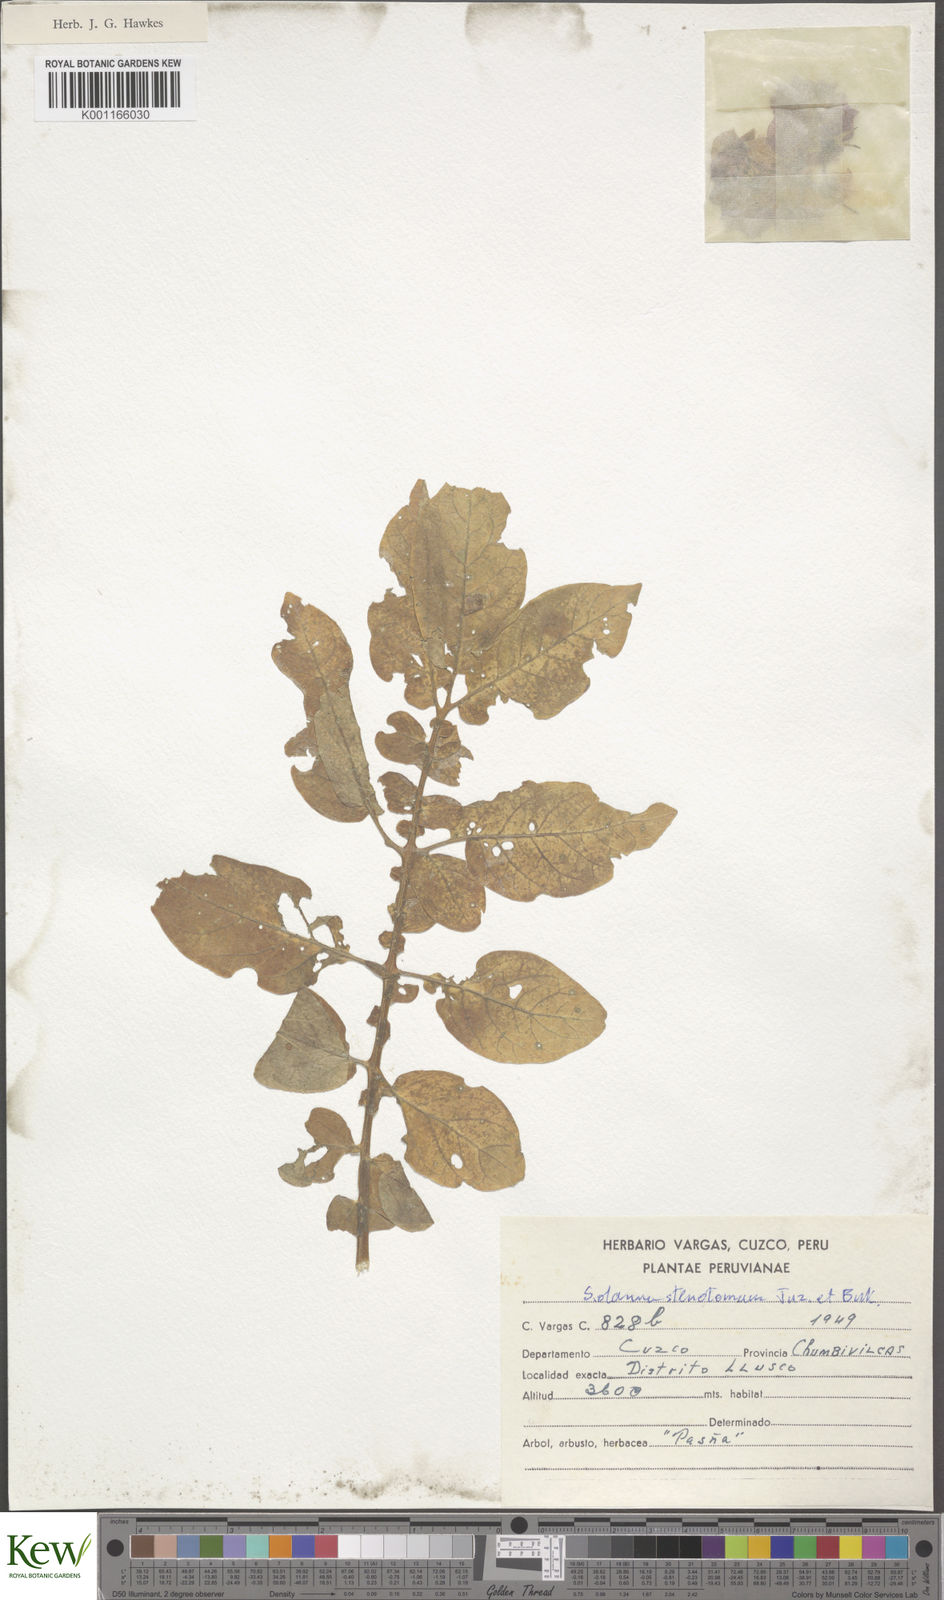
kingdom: Plantae
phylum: Tracheophyta
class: Magnoliopsida
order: Solanales
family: Solanaceae
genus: Solanum
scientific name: Solanum tuberosum
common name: Potato
